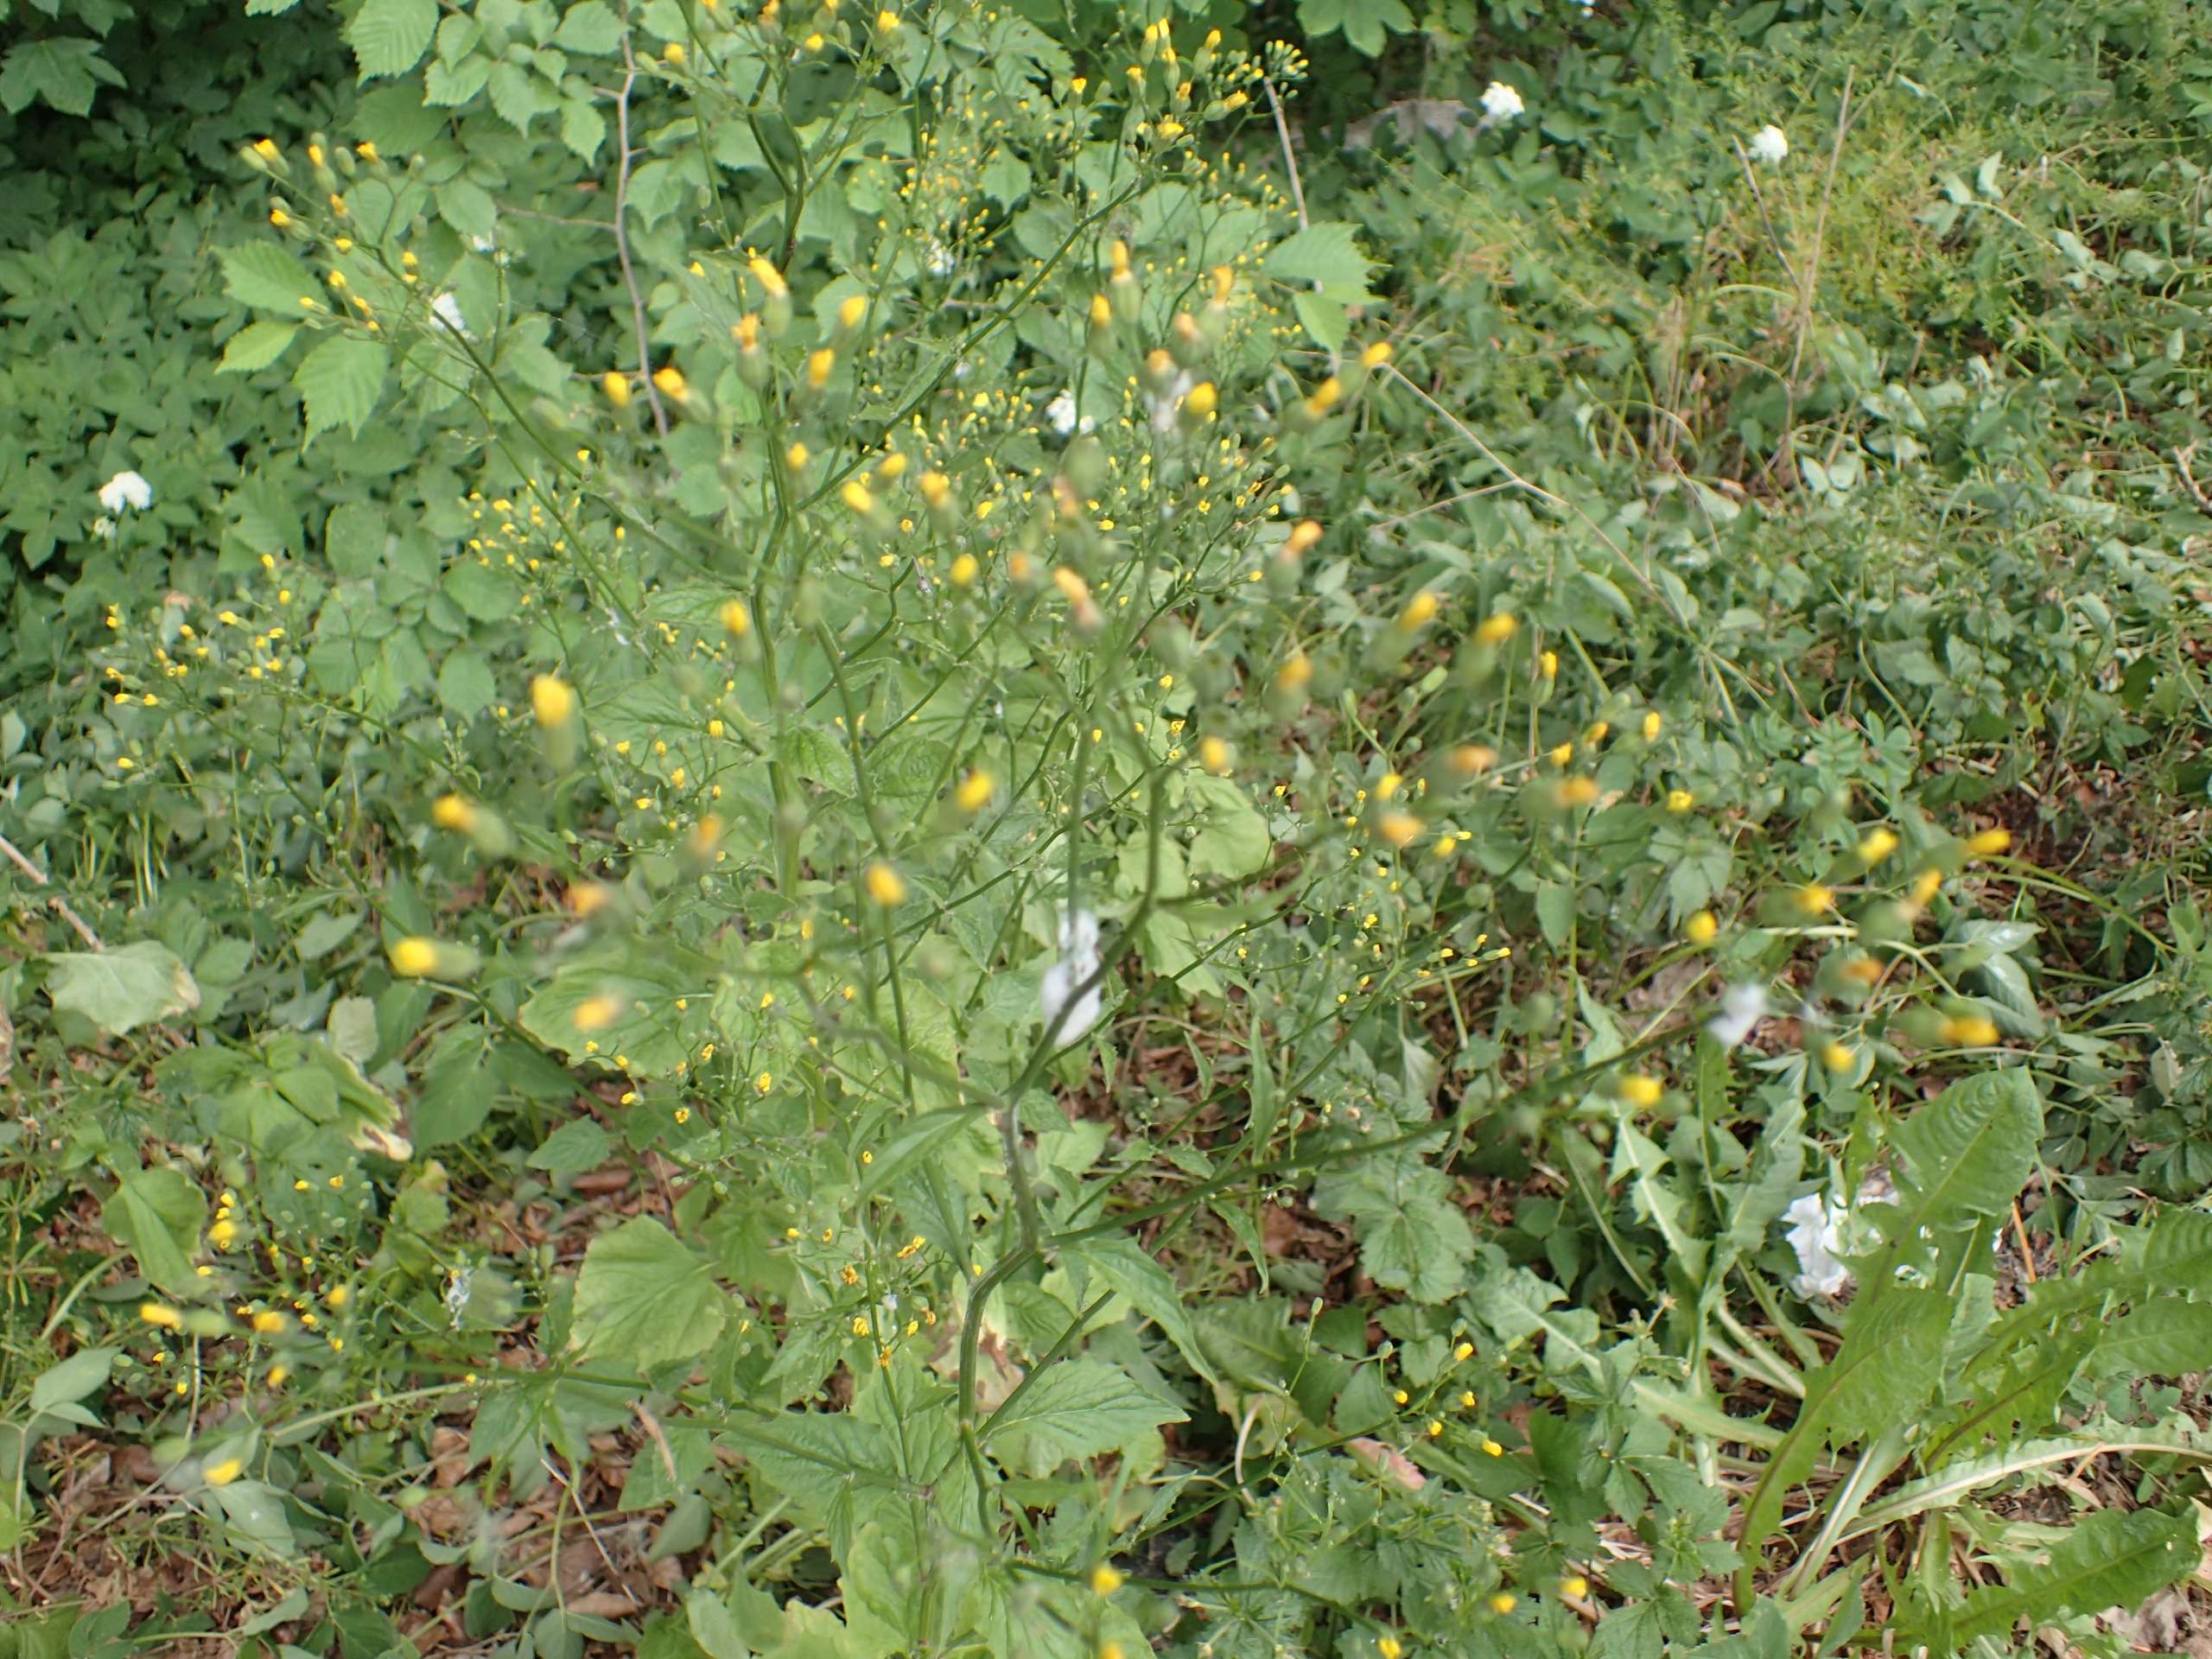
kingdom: Plantae
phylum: Tracheophyta
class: Magnoliopsida
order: Asterales
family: Asteraceae
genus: Lapsana
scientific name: Lapsana communis
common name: Haremad
